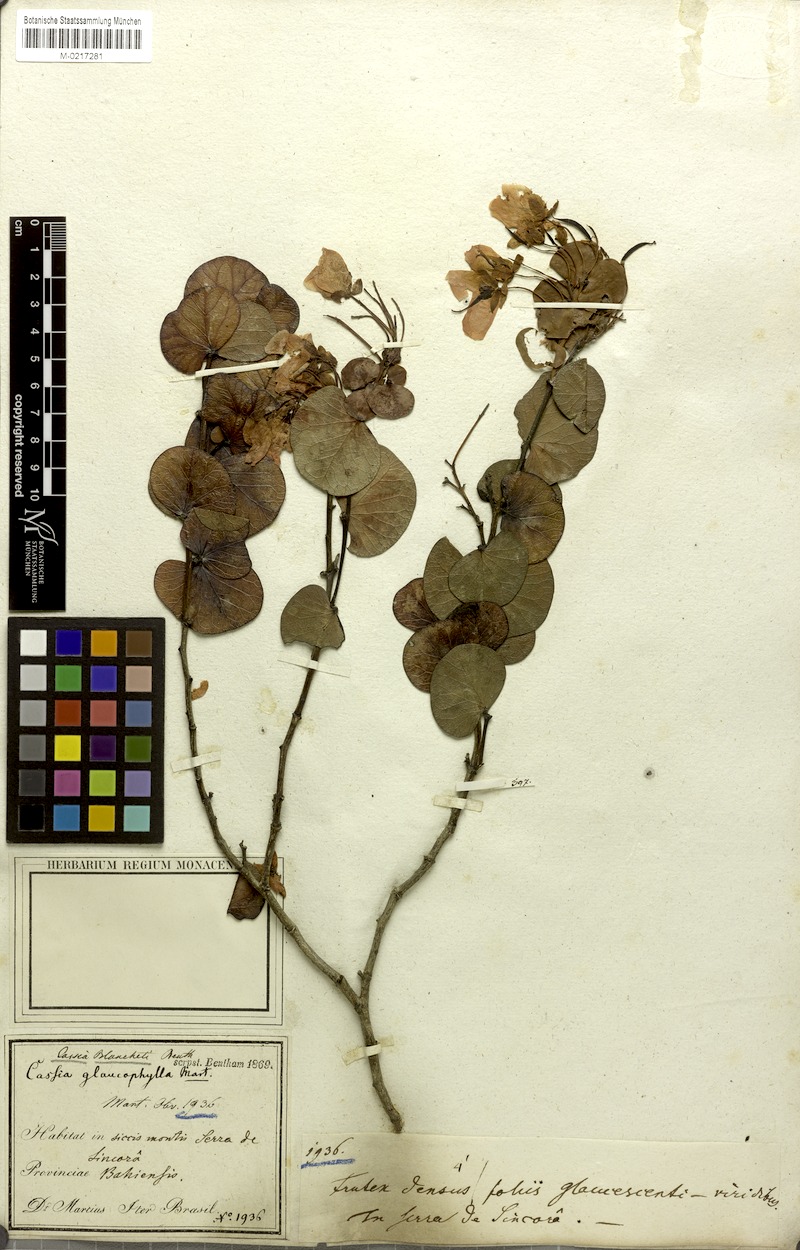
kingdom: Plantae
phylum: Tracheophyta
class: Magnoliopsida
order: Fabales
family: Fabaceae
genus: Chamaecrista
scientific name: Chamaecrista blanchetii
